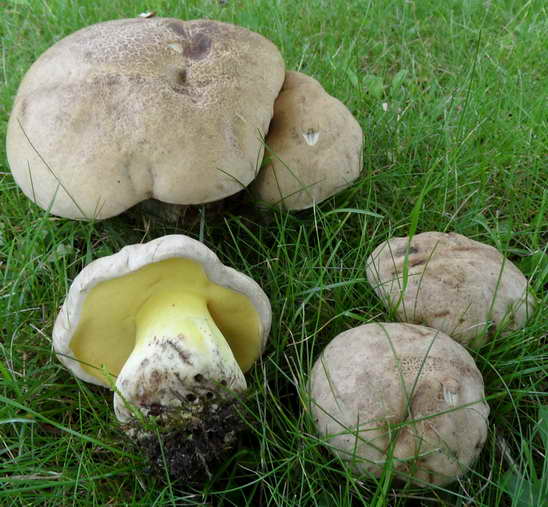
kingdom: Fungi
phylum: Basidiomycota
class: Agaricomycetes
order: Boletales
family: Boletaceae
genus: Caloboletus
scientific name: Caloboletus radicans
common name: rod-rørhat
